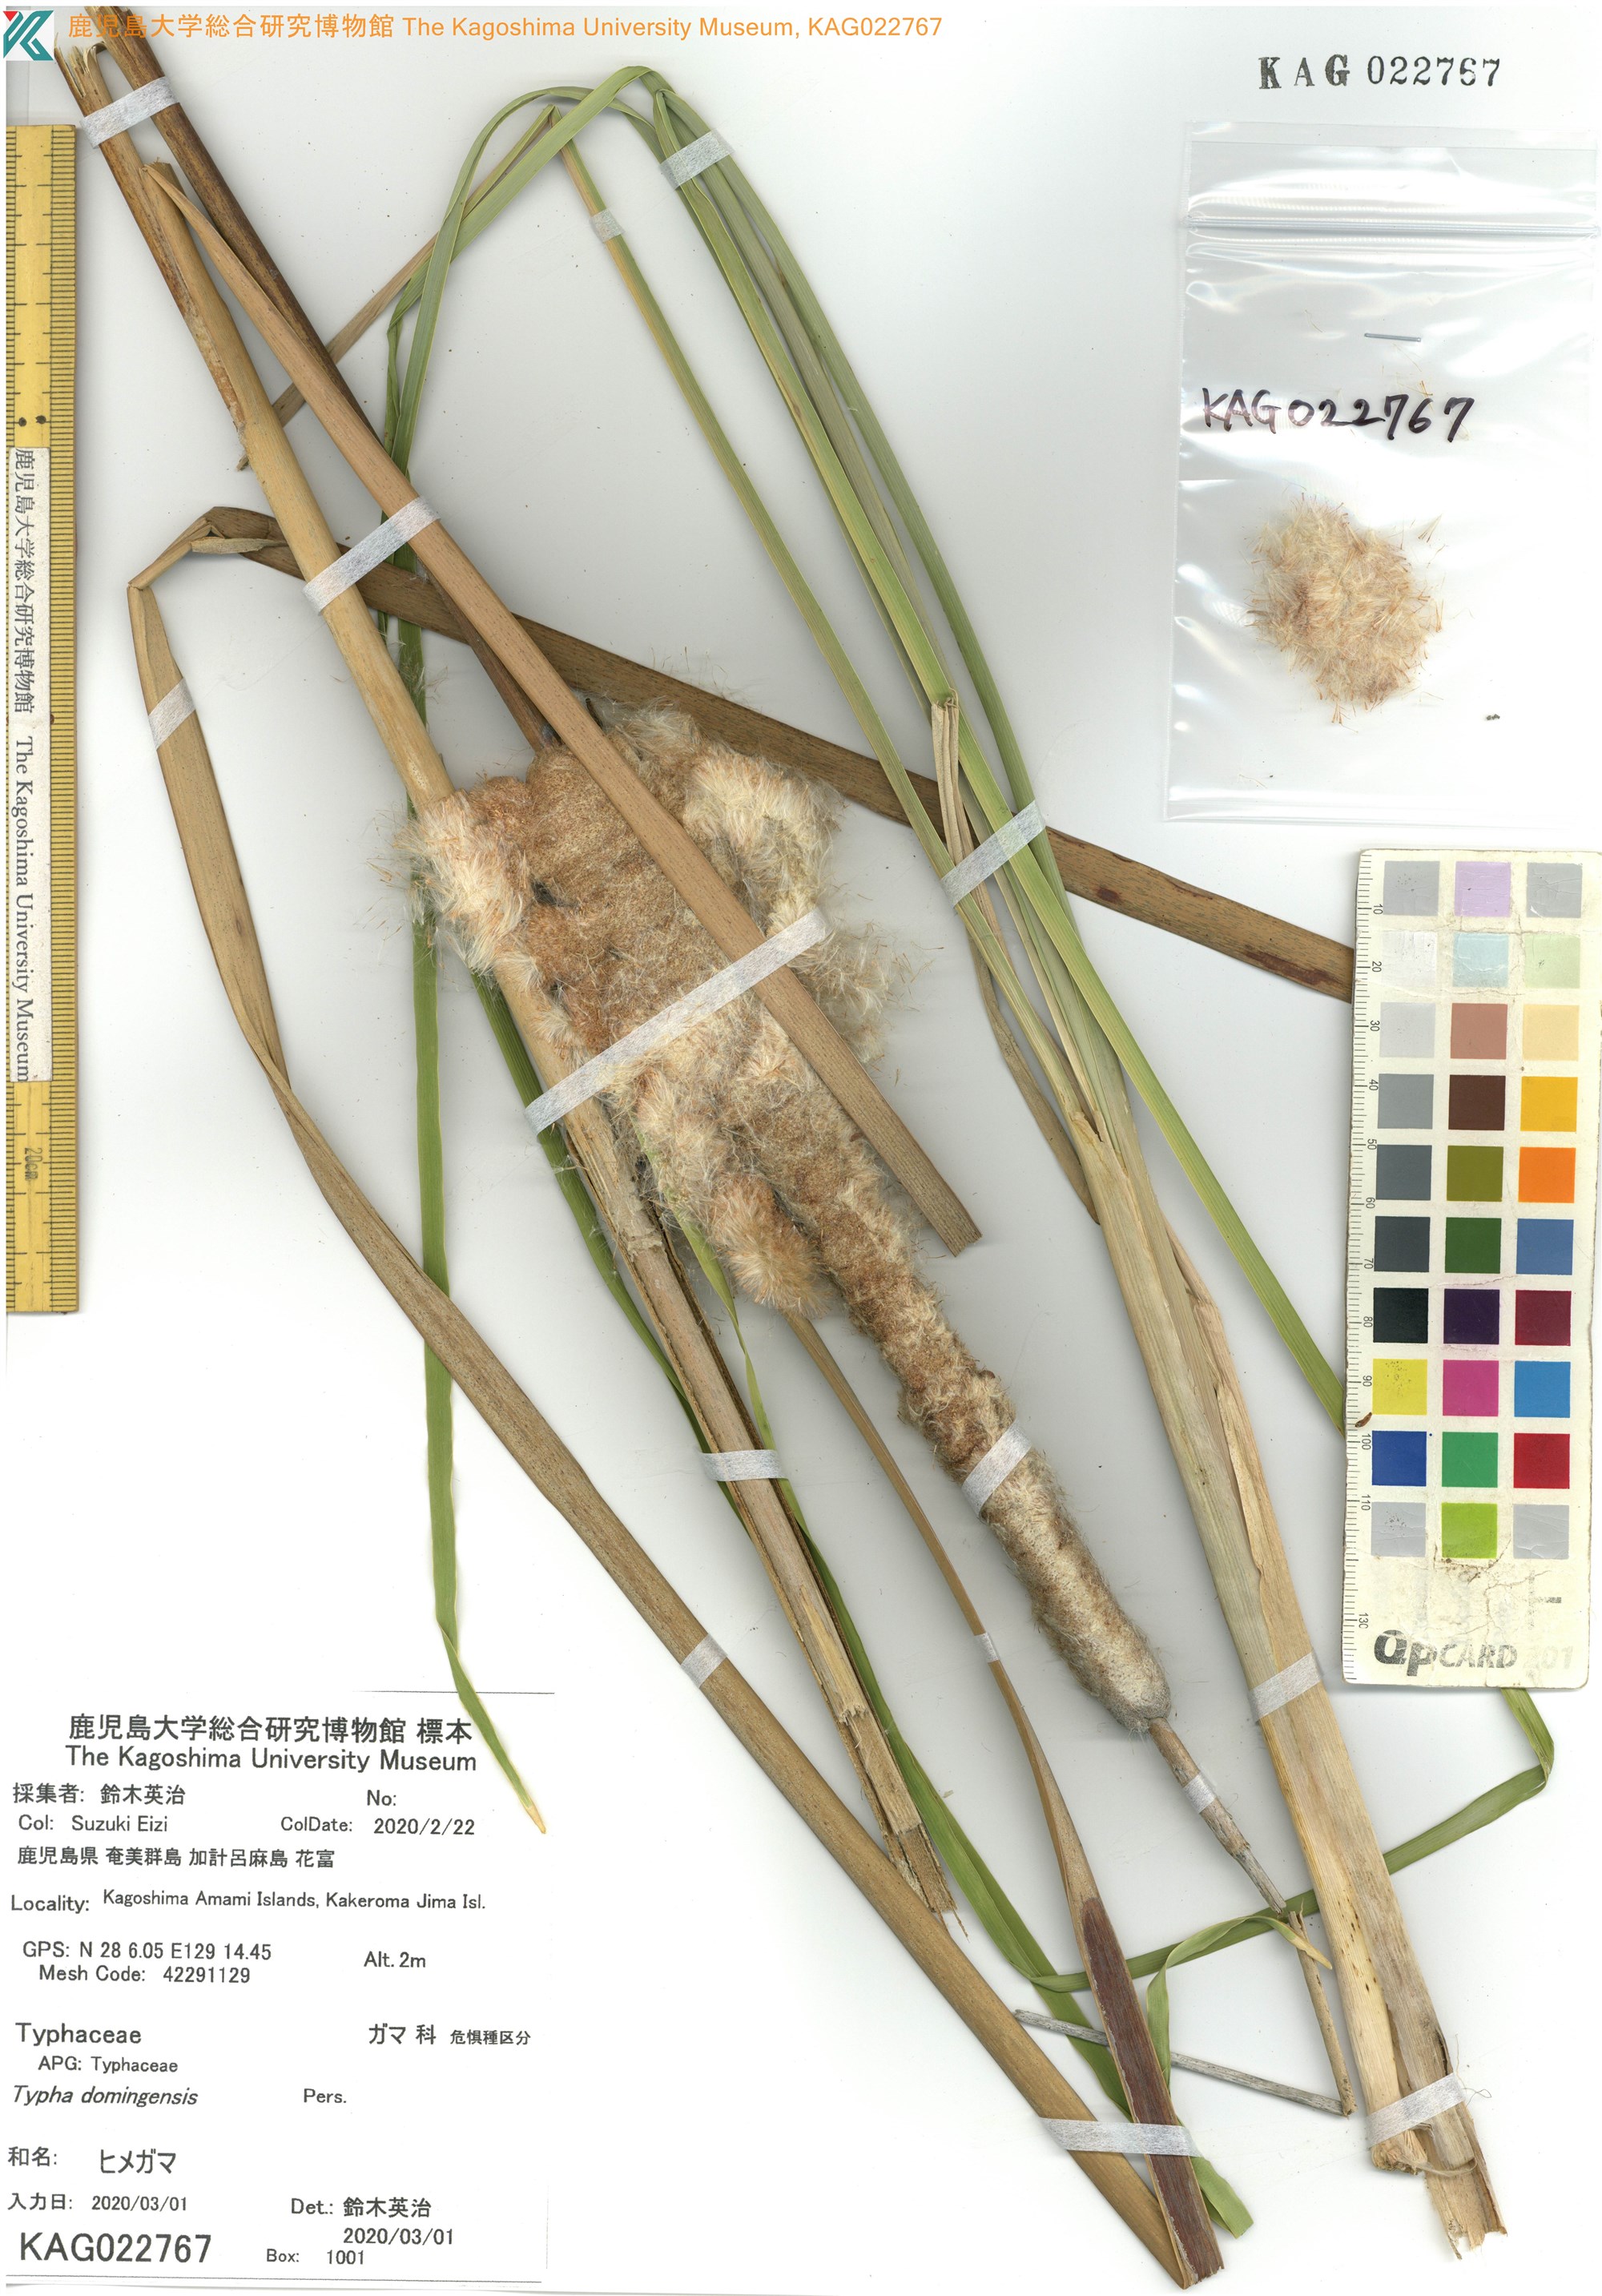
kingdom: Plantae
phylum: Tracheophyta
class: Liliopsida
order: Poales
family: Typhaceae
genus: Typha
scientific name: Typha domingensis
